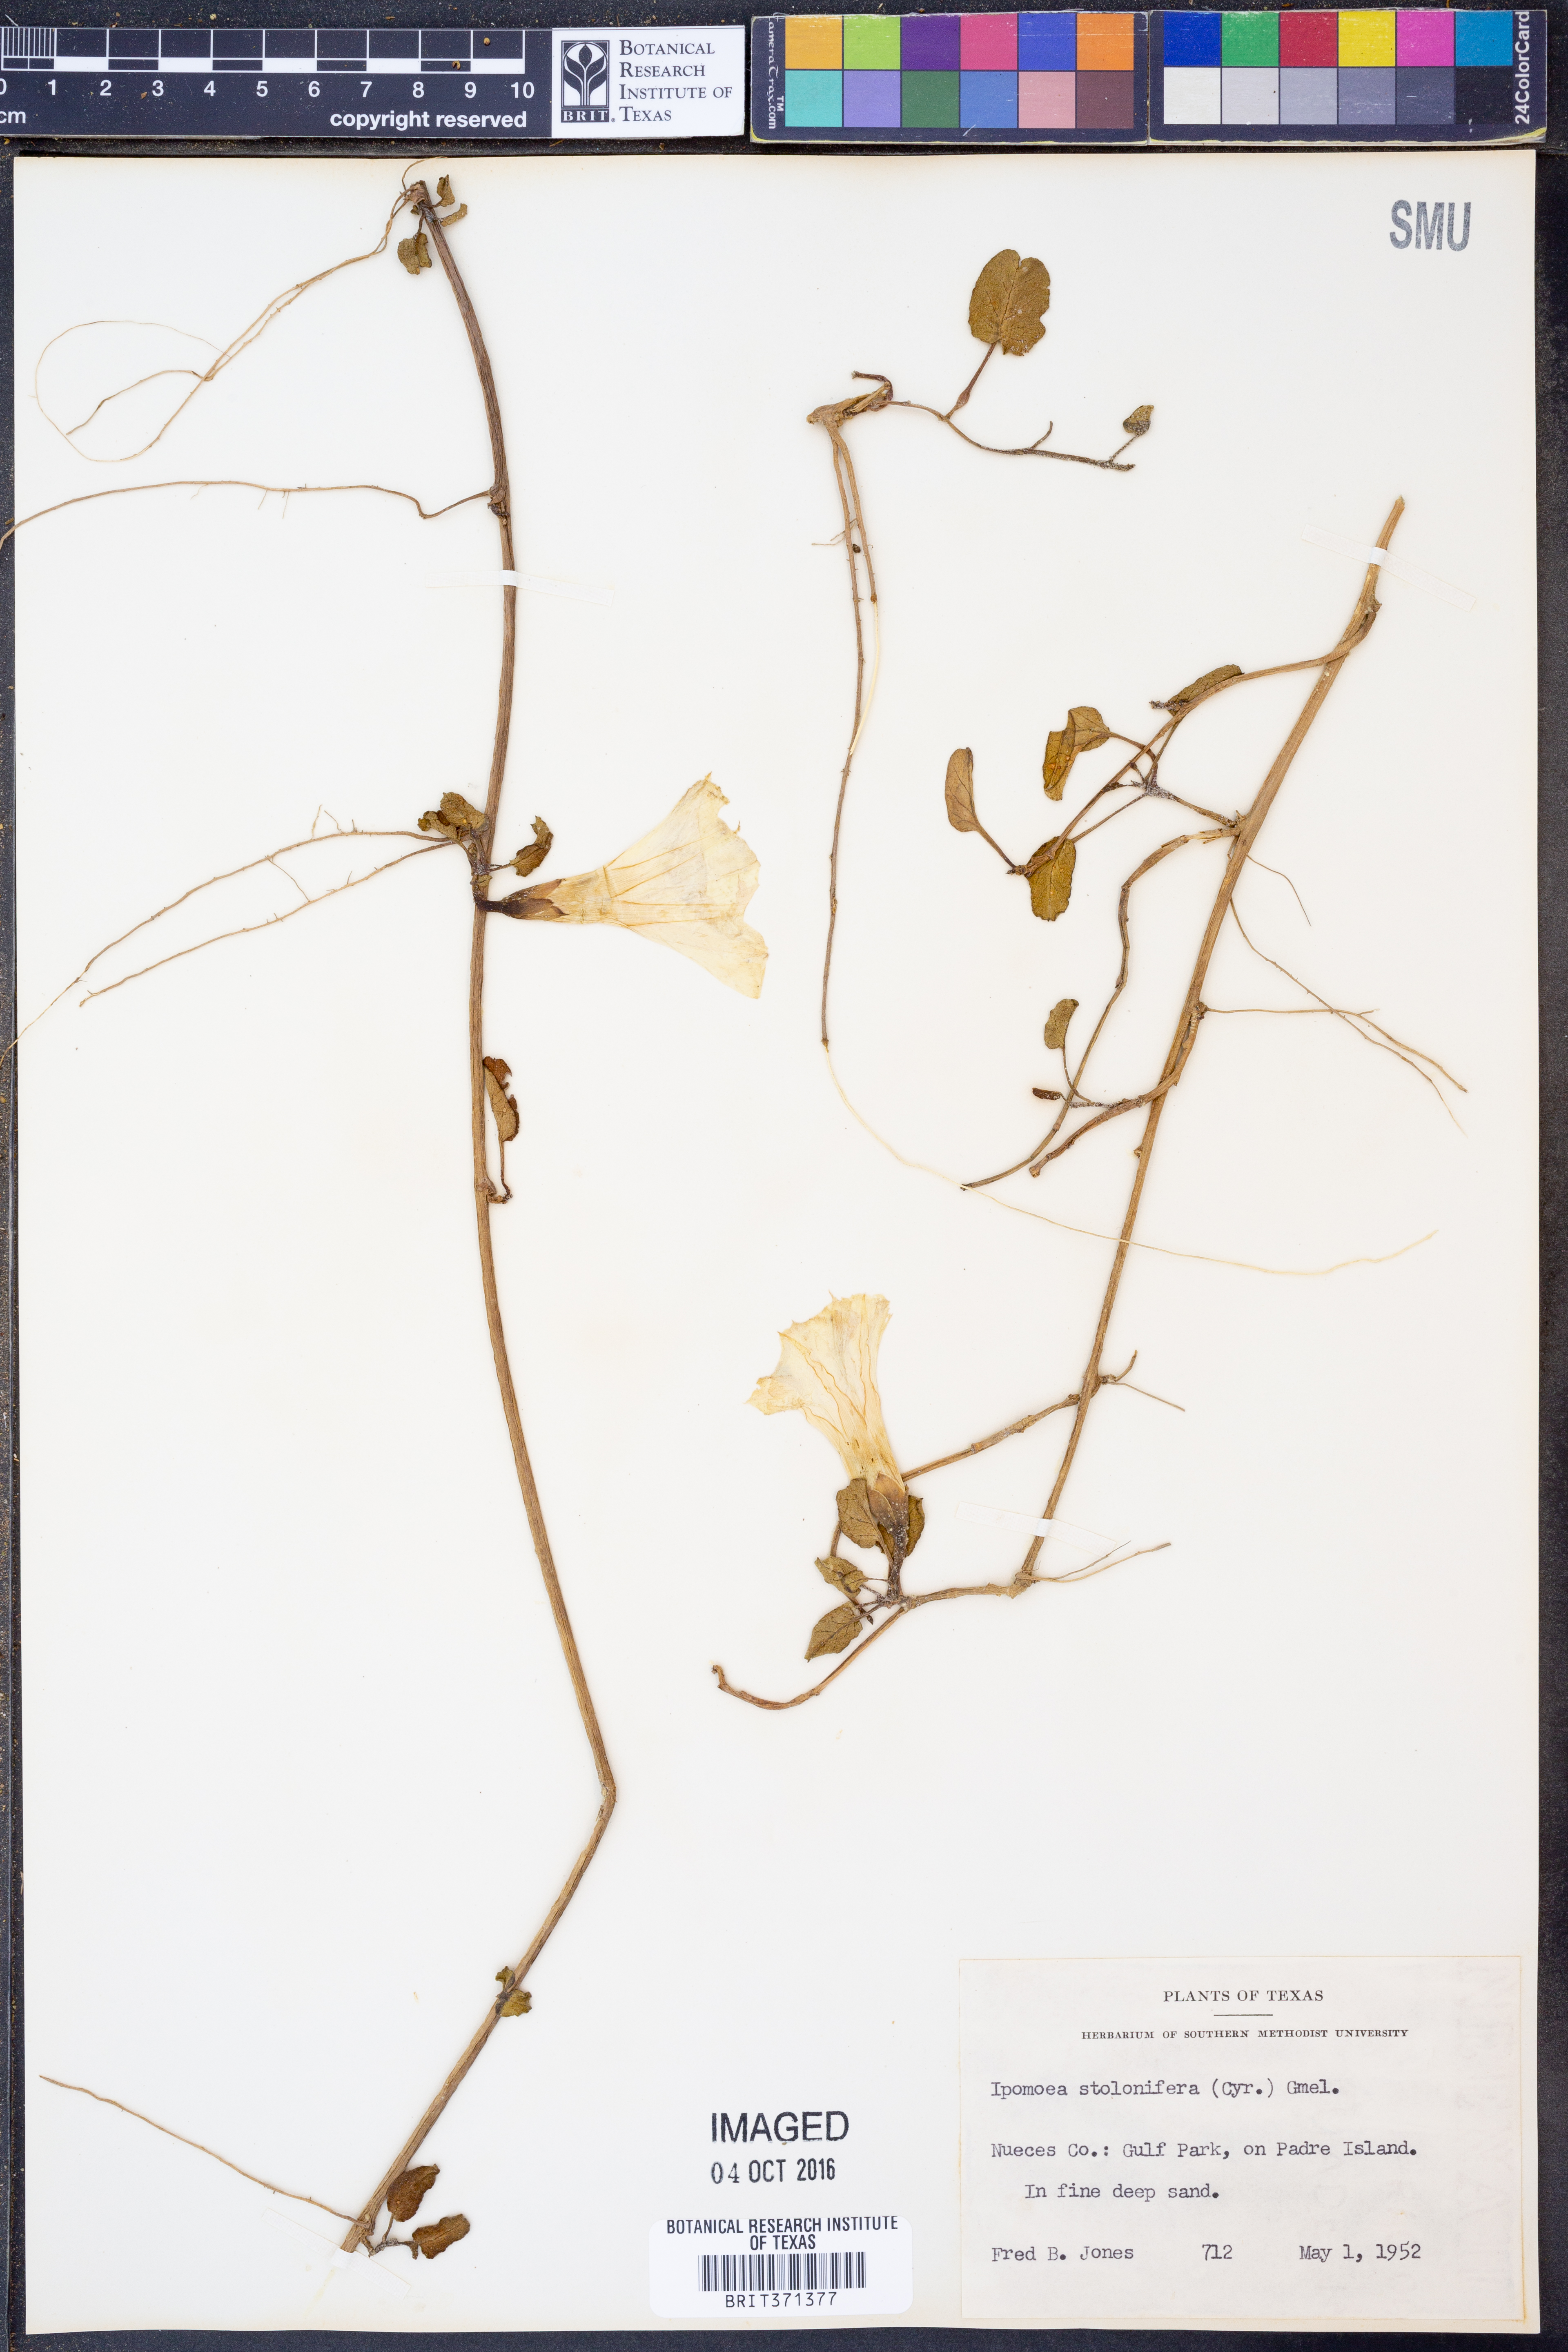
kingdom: Plantae
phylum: Tracheophyta
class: Magnoliopsida
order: Solanales
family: Convolvulaceae
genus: Ipomoea
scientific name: Ipomoea imperati
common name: Fiddle-leaf morning-glory
